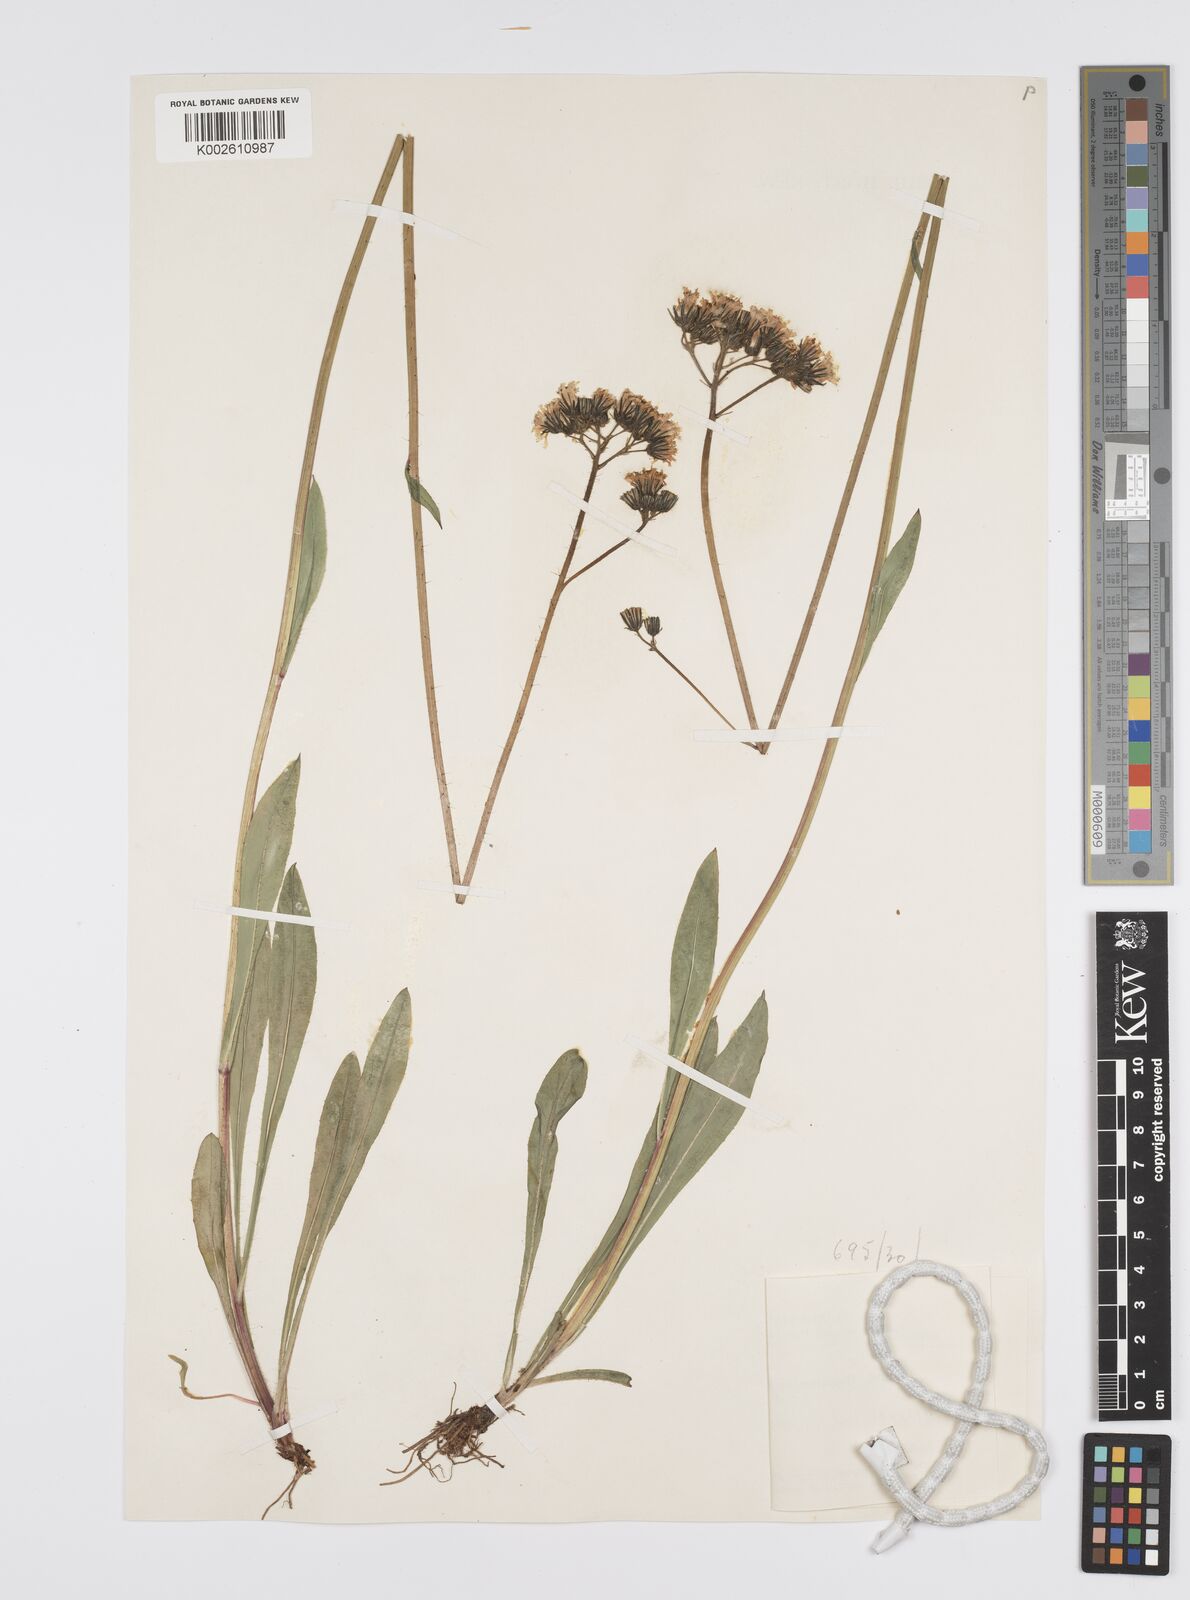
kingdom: Plantae
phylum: Tracheophyta
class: Magnoliopsida
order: Asterales
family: Asteraceae
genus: Hieracium
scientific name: Hieracium
